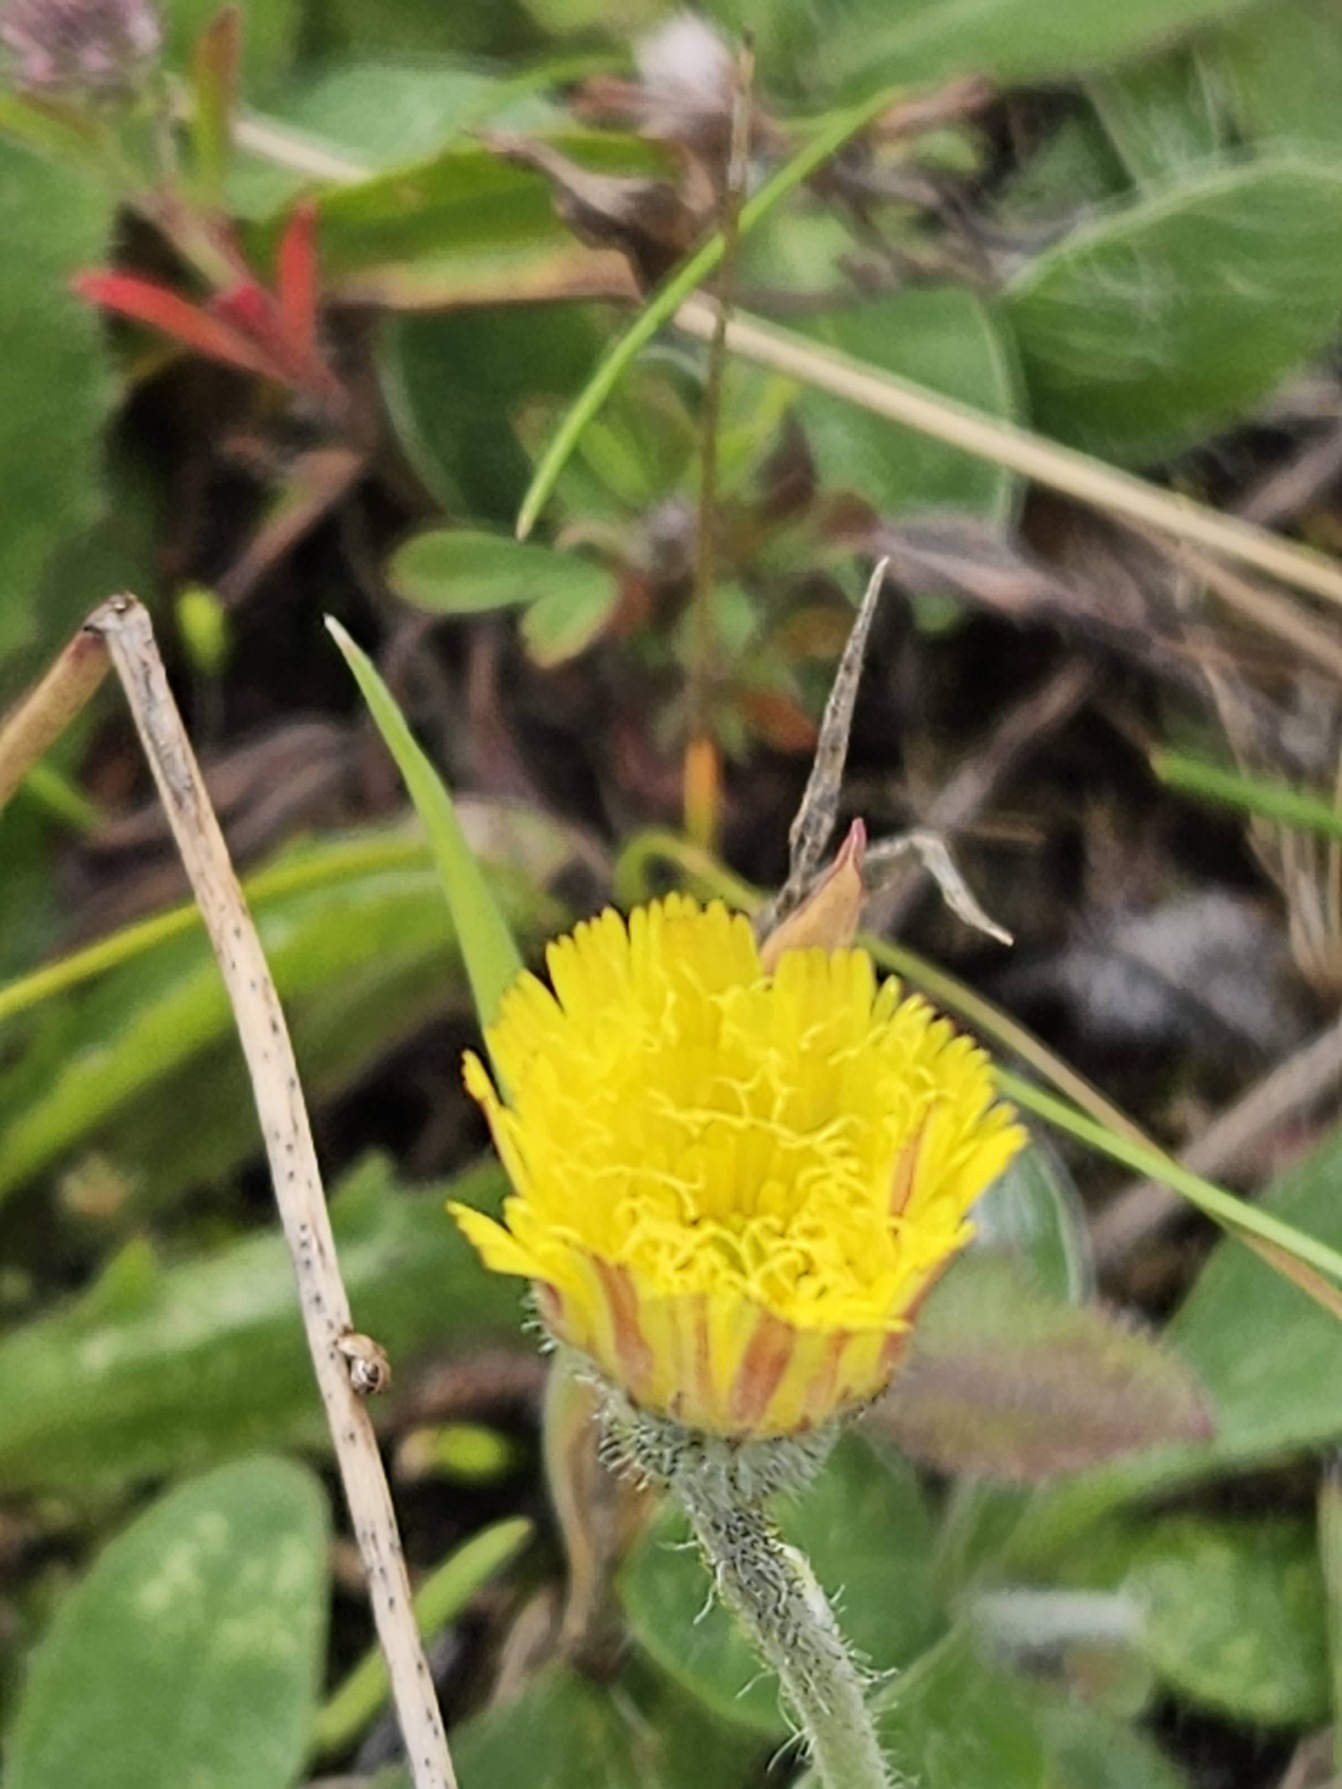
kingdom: Plantae
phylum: Tracheophyta
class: Magnoliopsida
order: Asterales
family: Asteraceae
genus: Pilosella
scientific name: Pilosella officinarum
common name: Håret høgeurt
